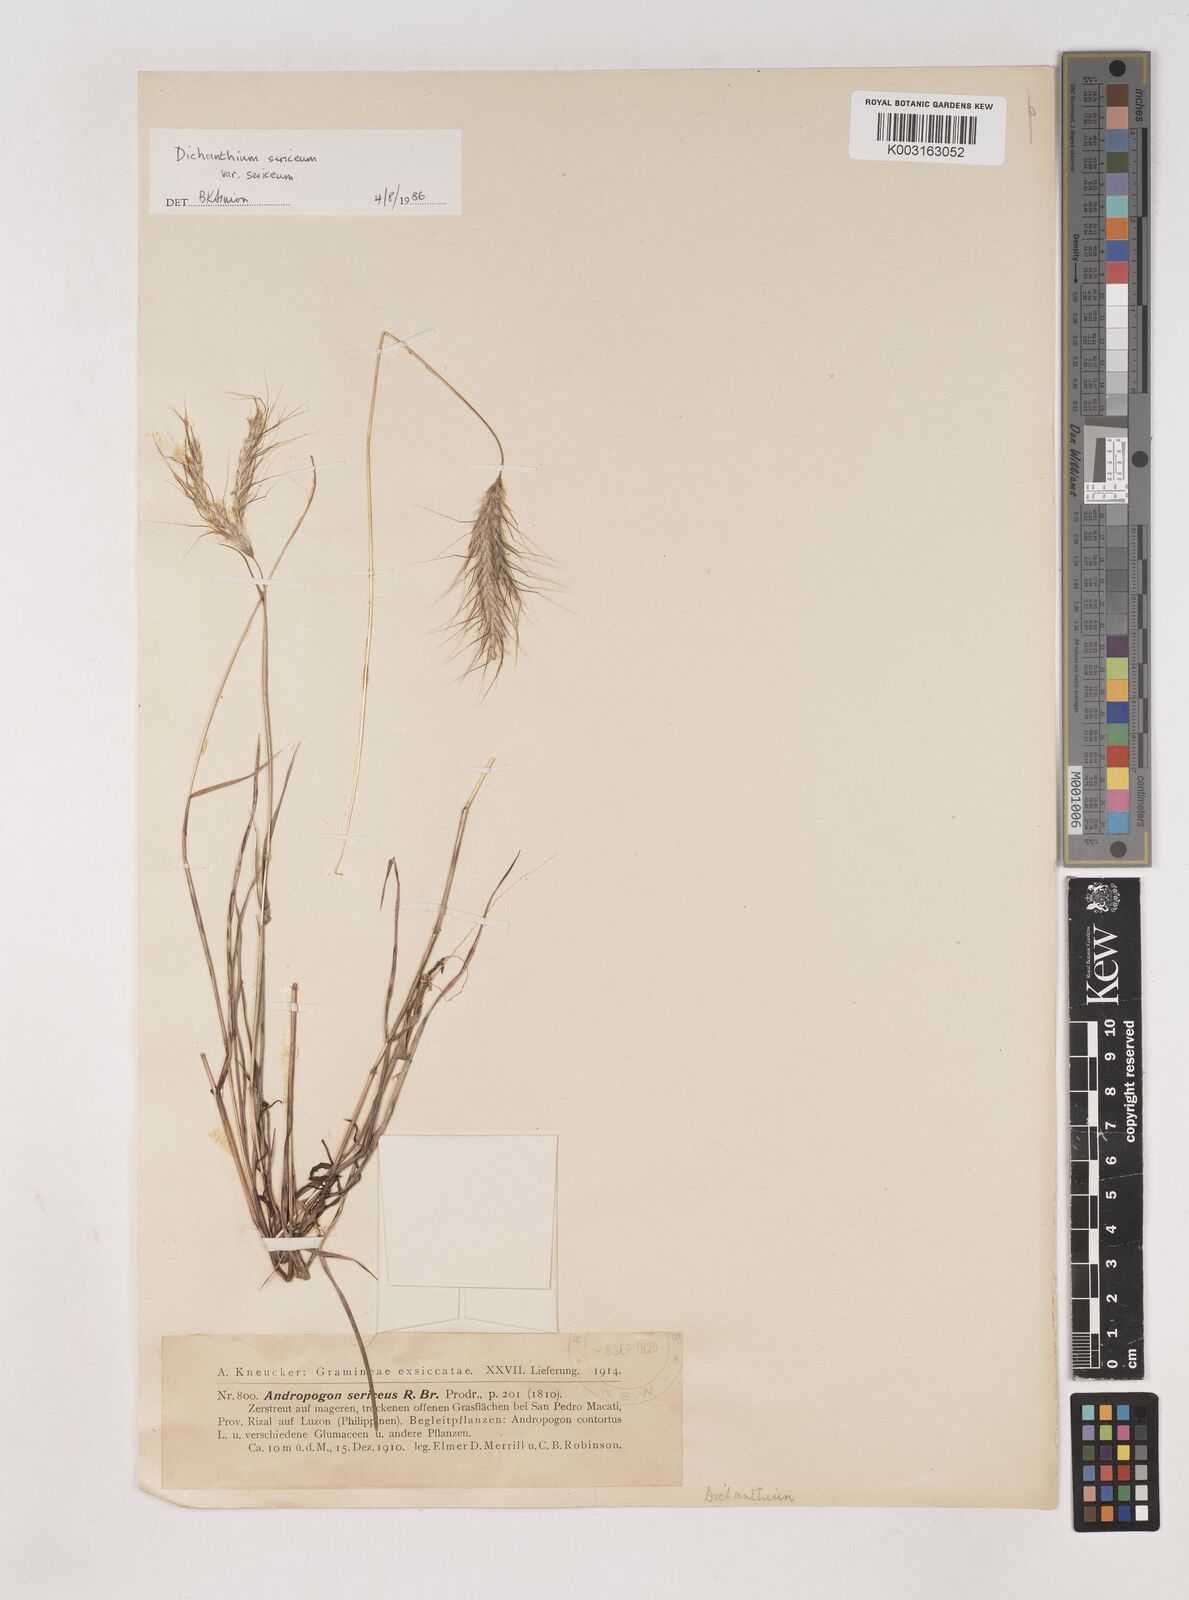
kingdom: Plantae
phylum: Tracheophyta
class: Liliopsida
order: Poales
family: Poaceae
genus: Dichanthium
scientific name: Dichanthium sericeum
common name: Silky bluestem
